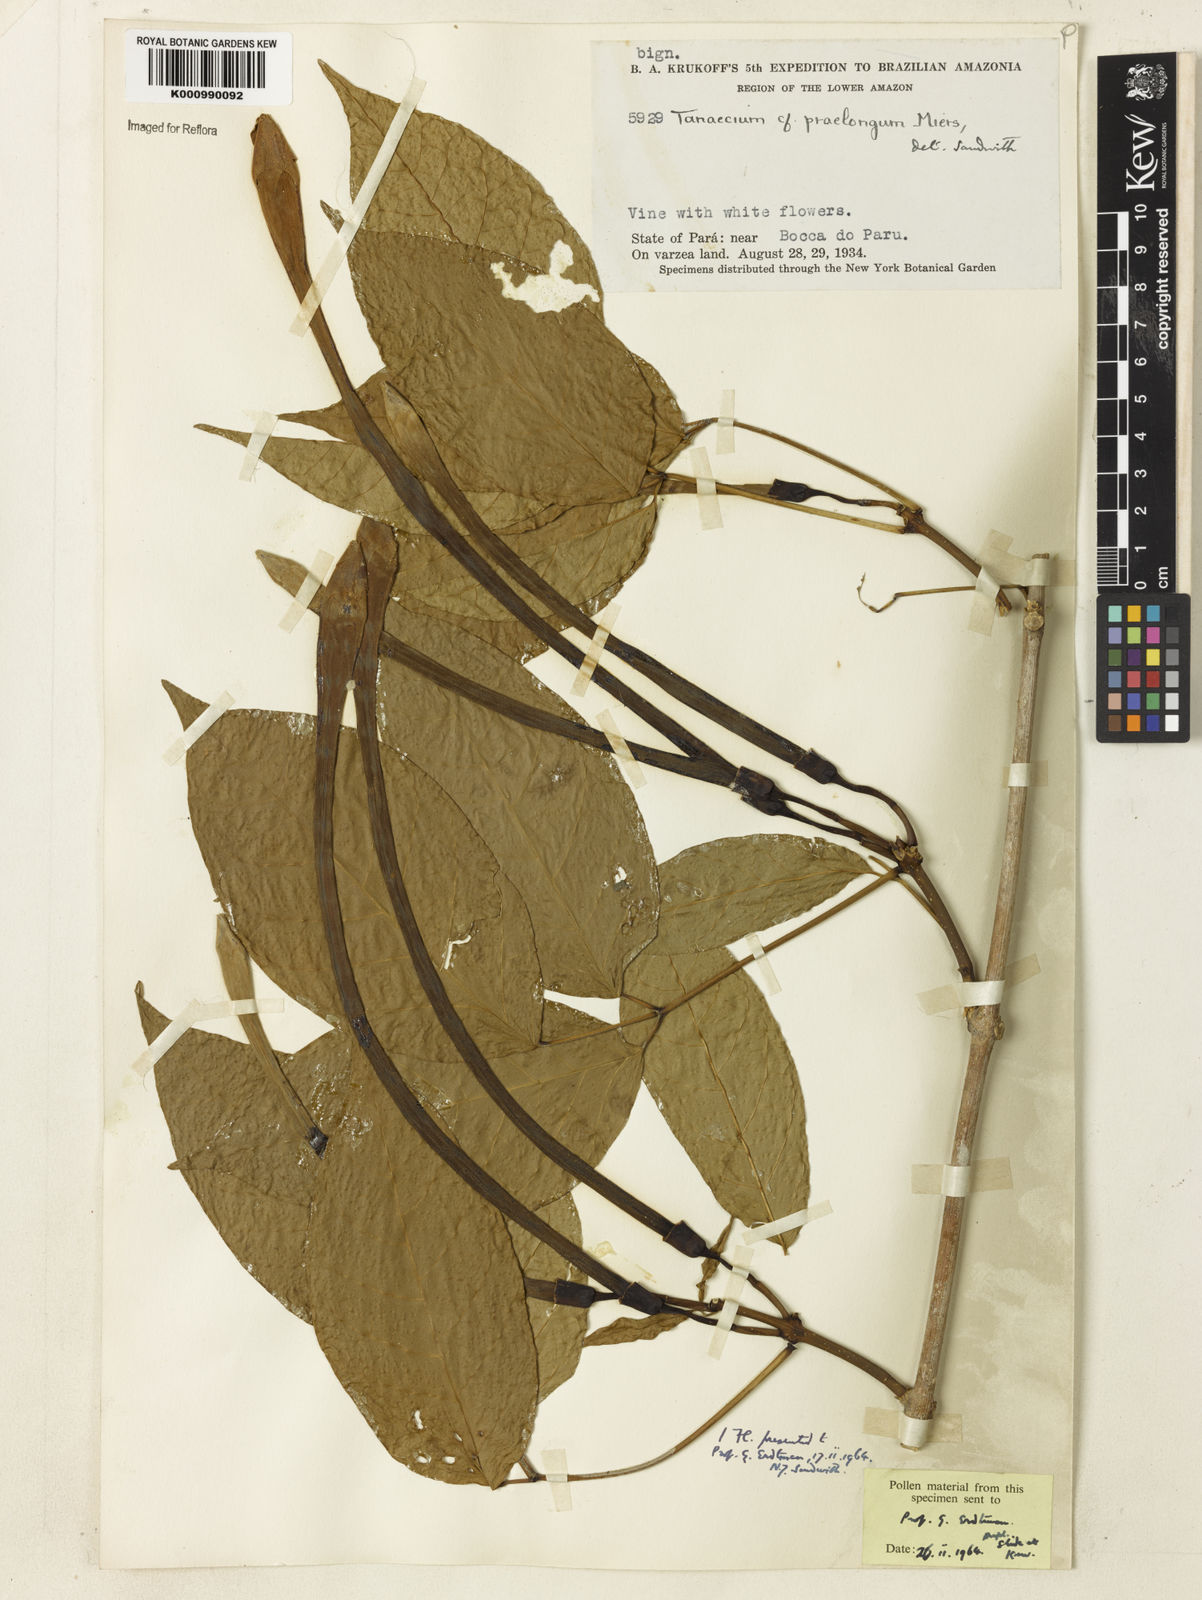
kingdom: Plantae
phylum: Tracheophyta
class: Magnoliopsida
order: Lamiales
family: Bignoniaceae
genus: Tanaecium
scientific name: Tanaecium jaroba
